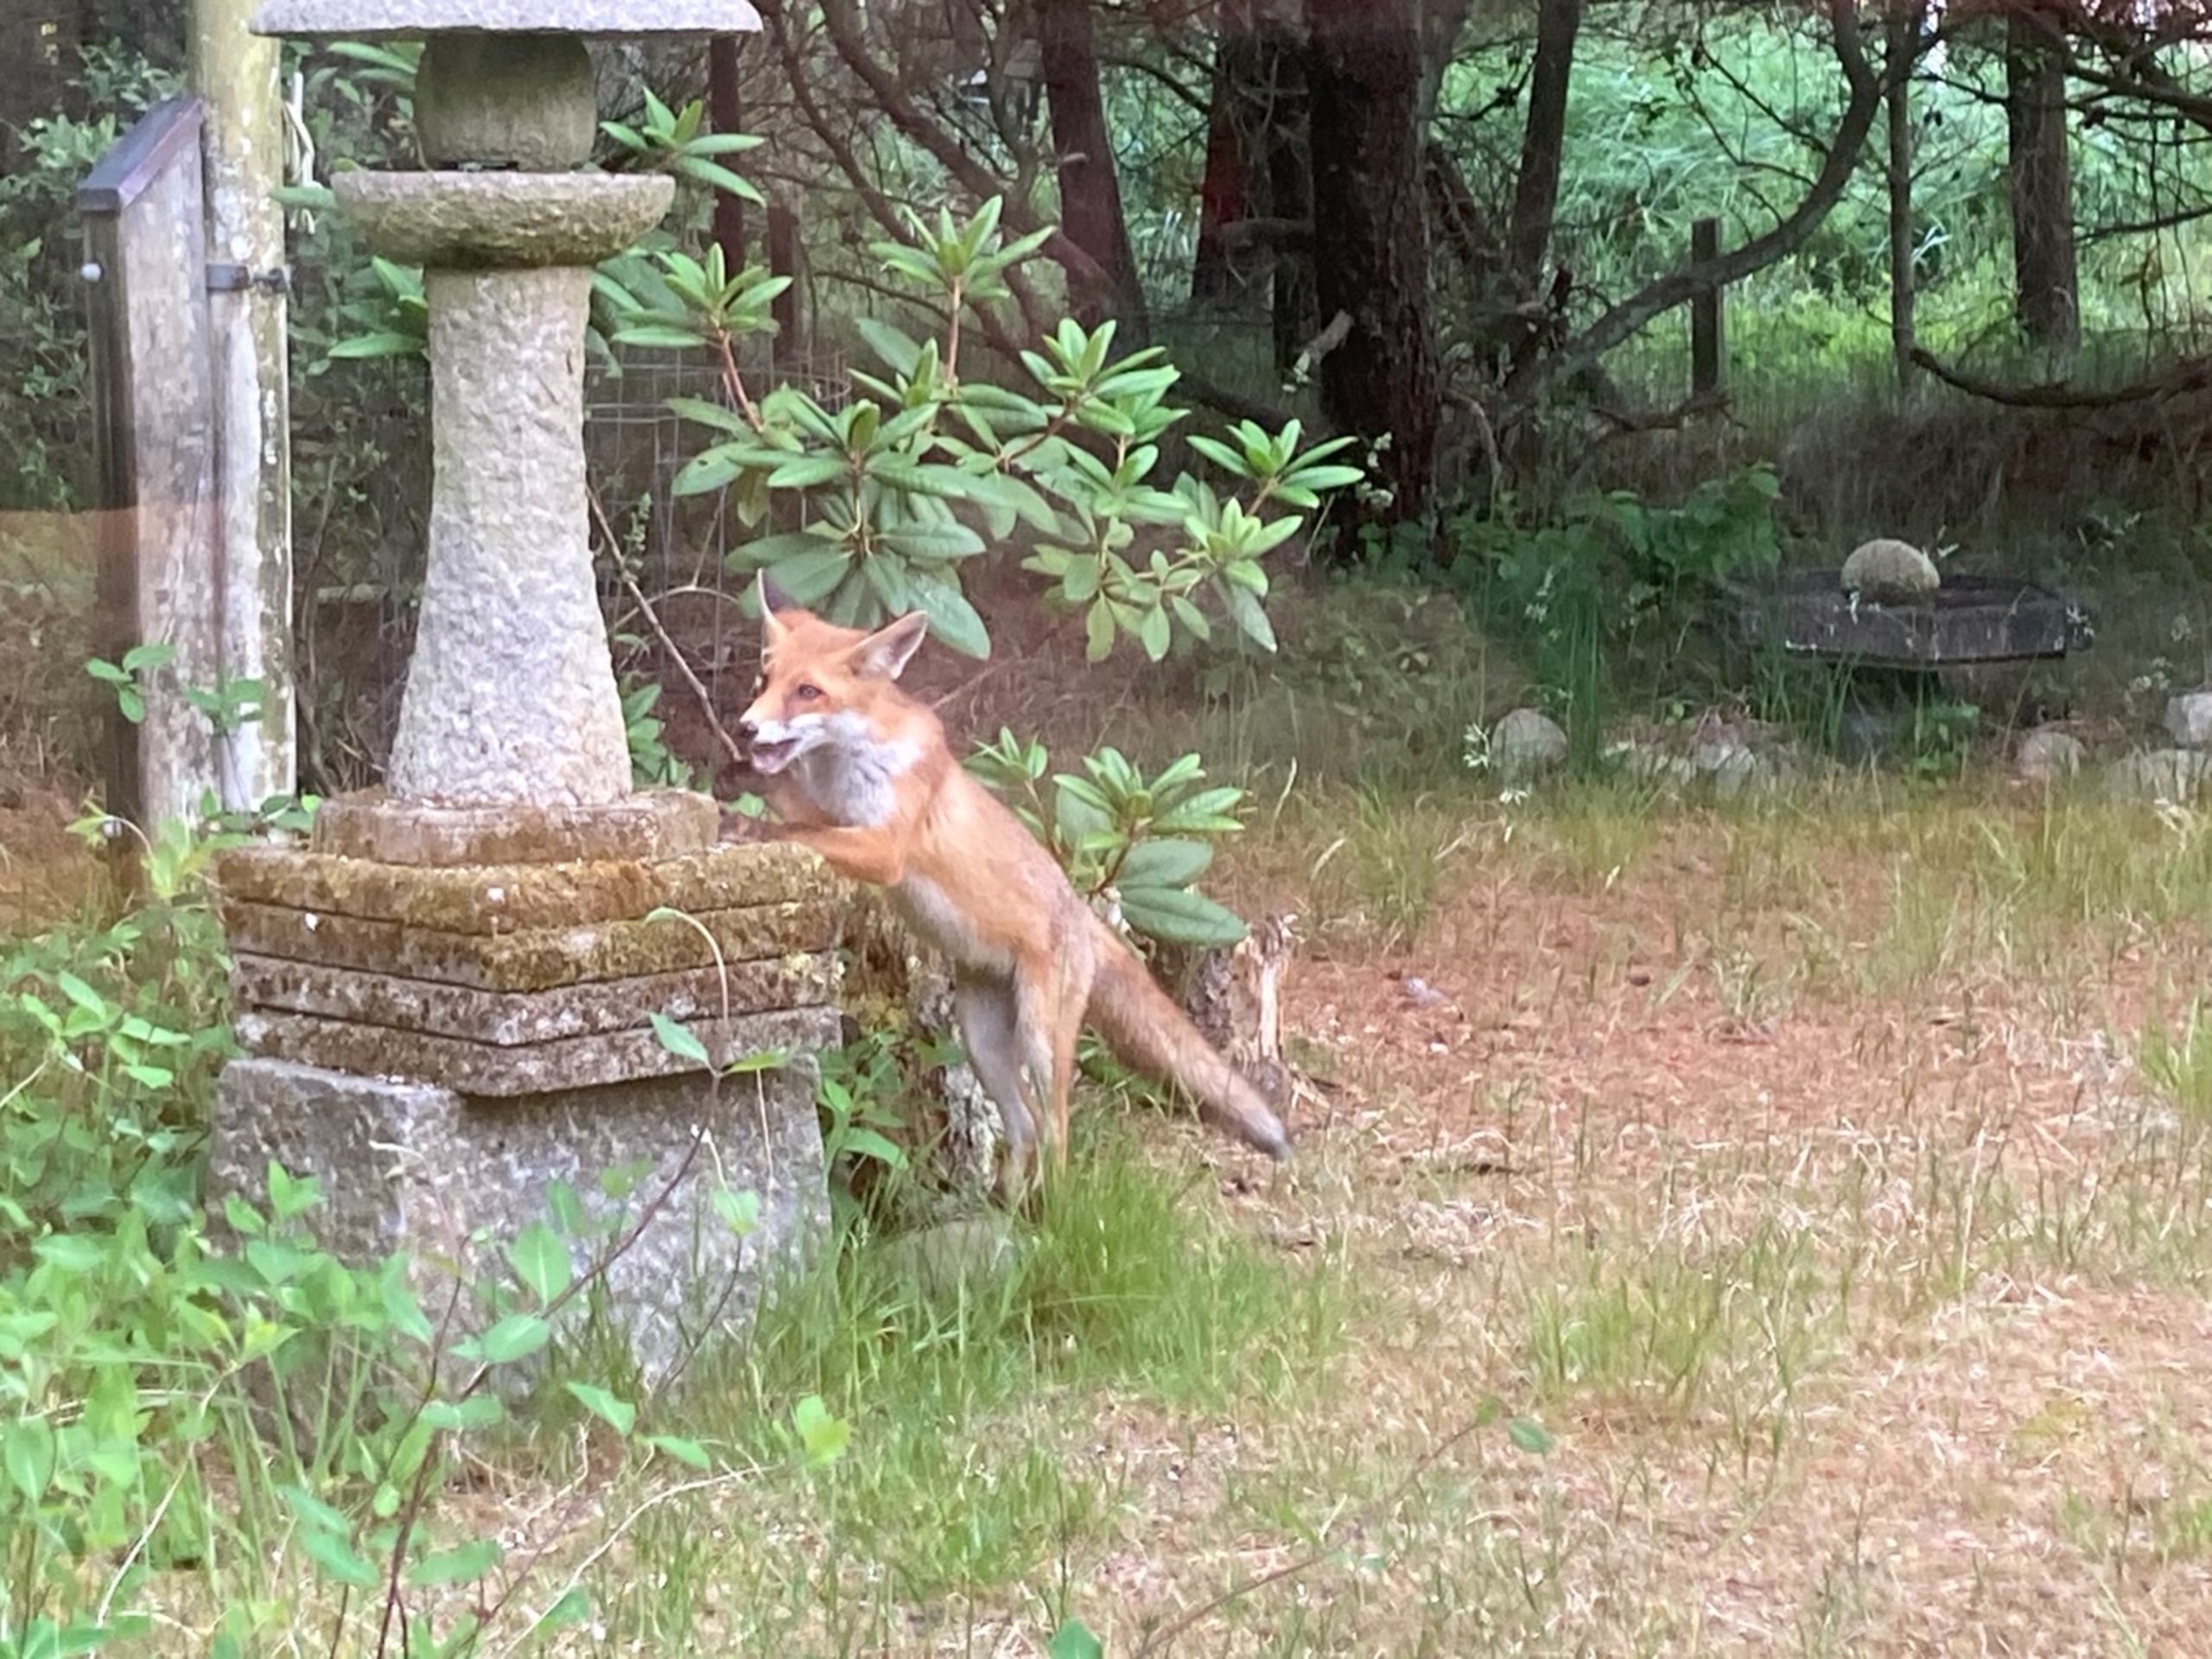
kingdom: Animalia
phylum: Chordata
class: Mammalia
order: Carnivora
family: Canidae
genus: Vulpes
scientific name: Vulpes vulpes
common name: Ræv
